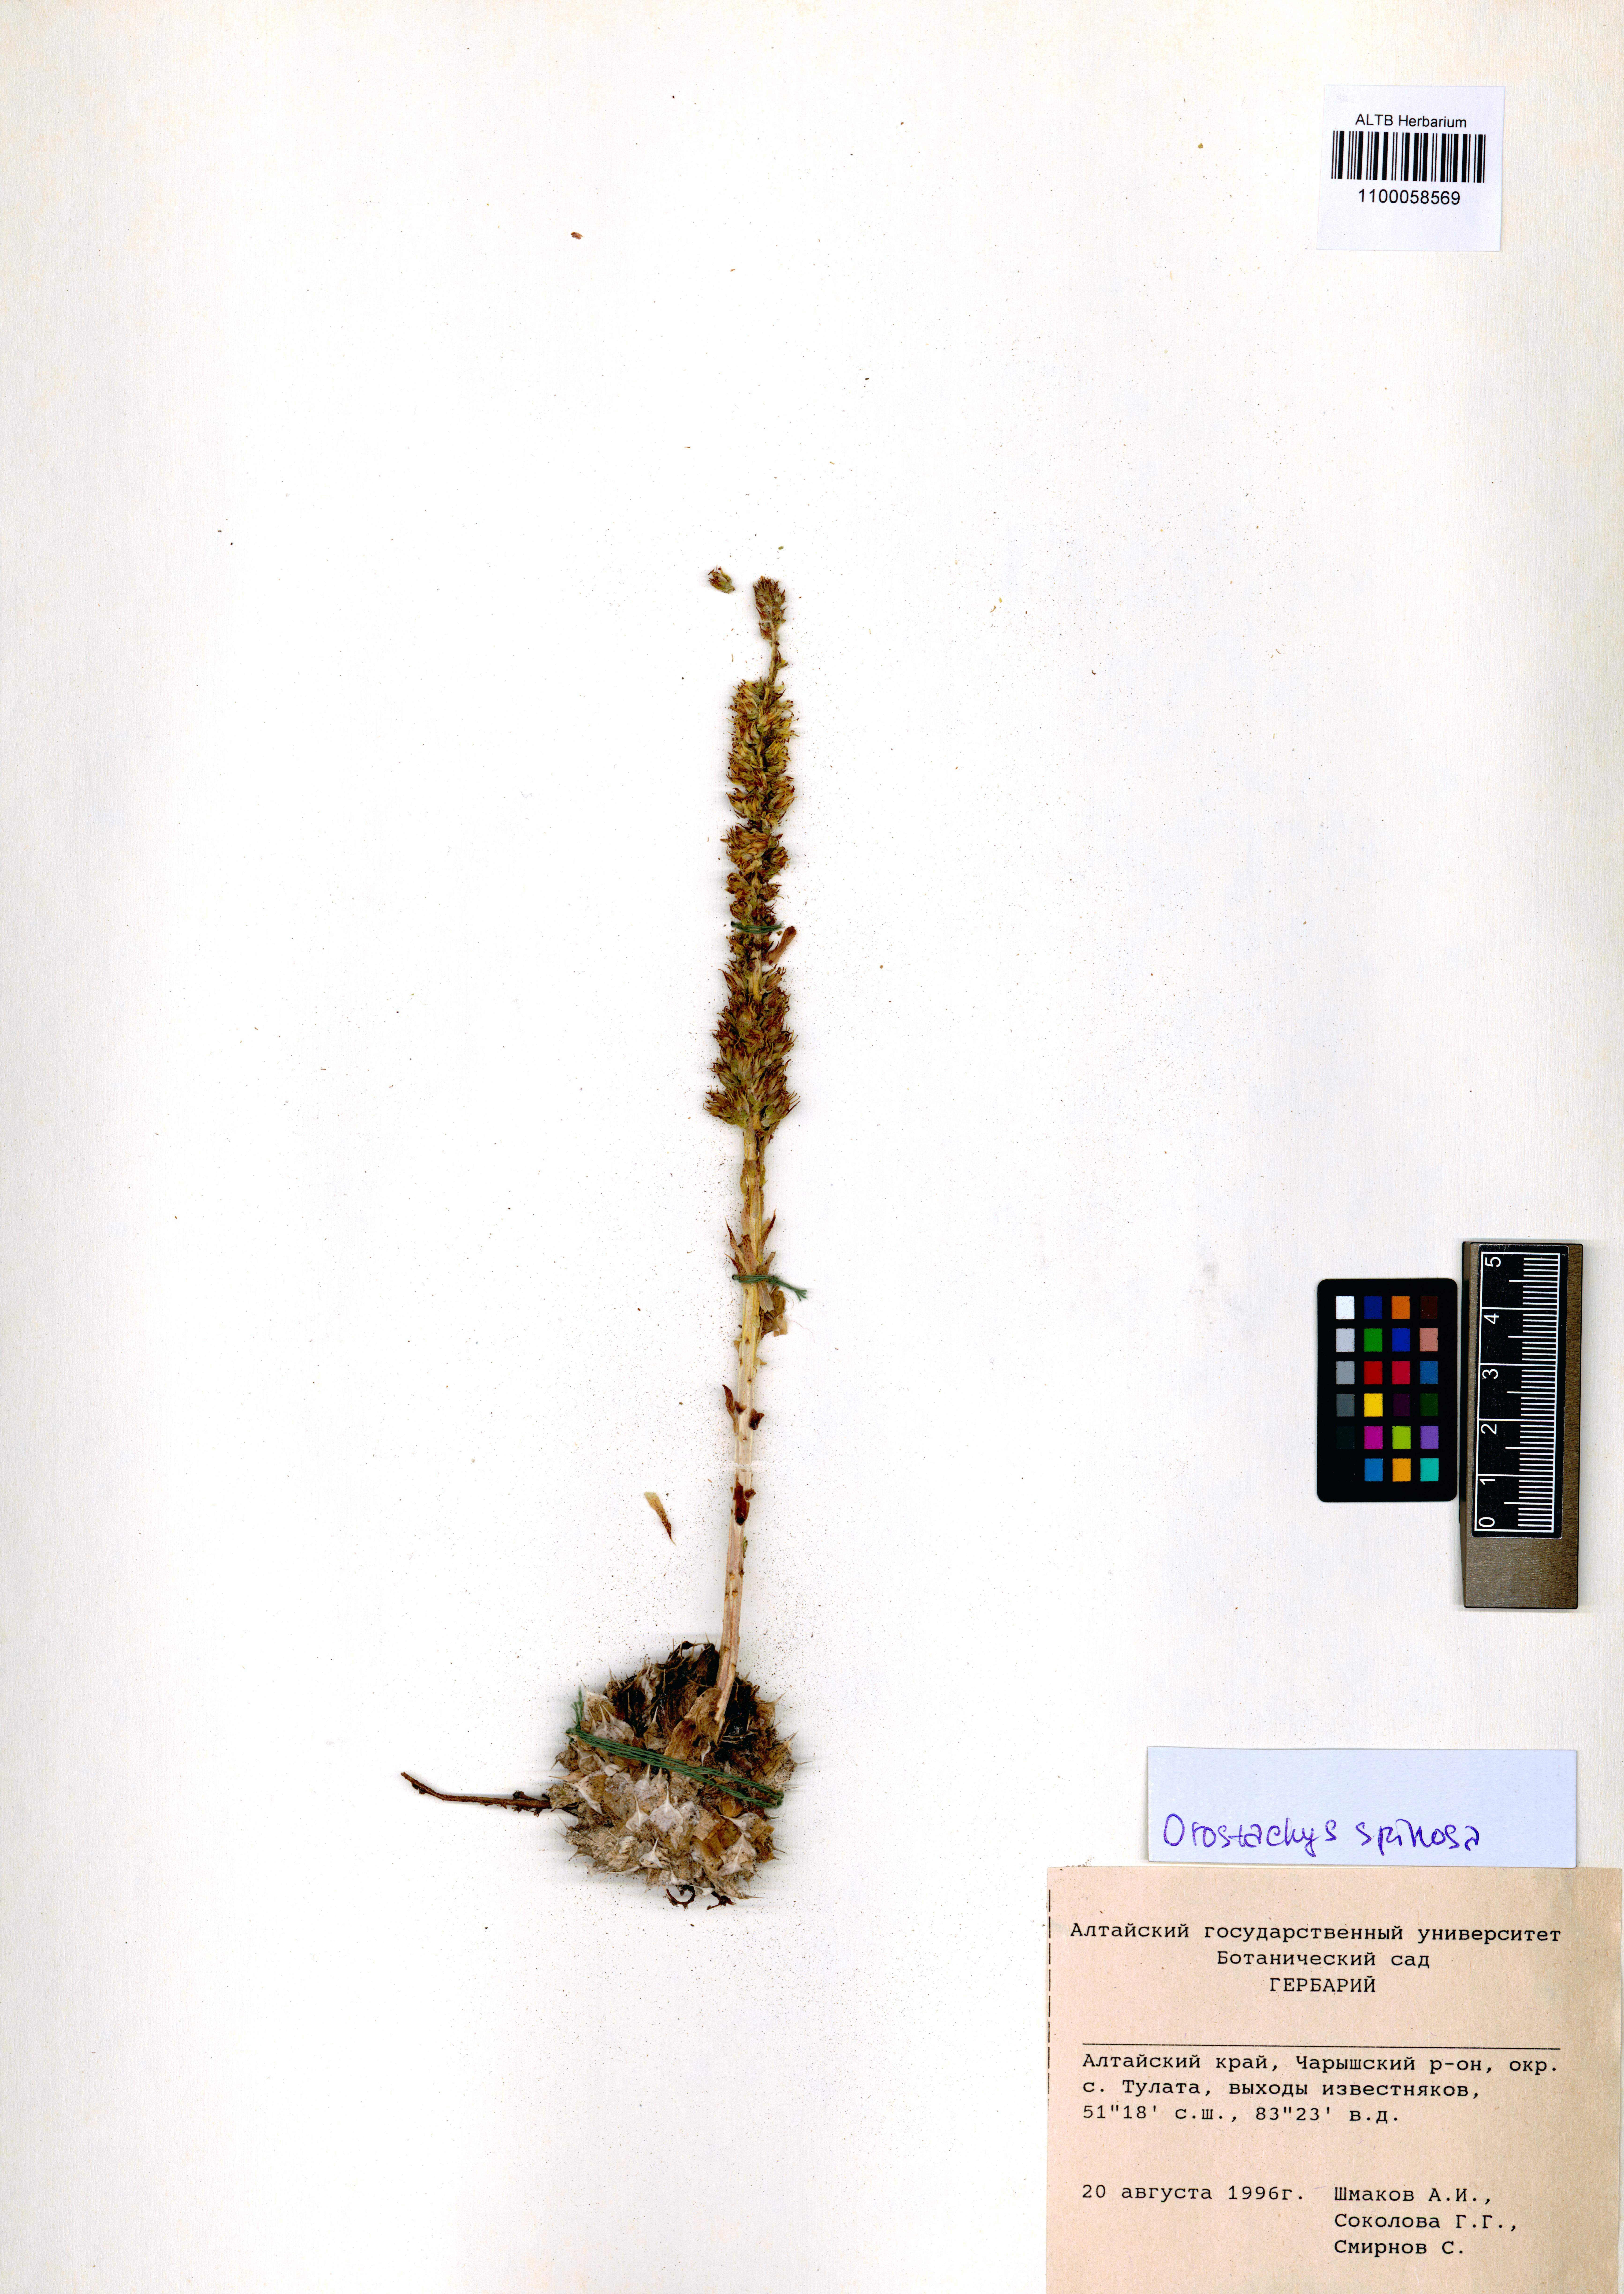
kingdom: Plantae
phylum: Tracheophyta
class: Magnoliopsida
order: Saxifragales
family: Crassulaceae
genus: Orostachys
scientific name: Orostachys spinosa
